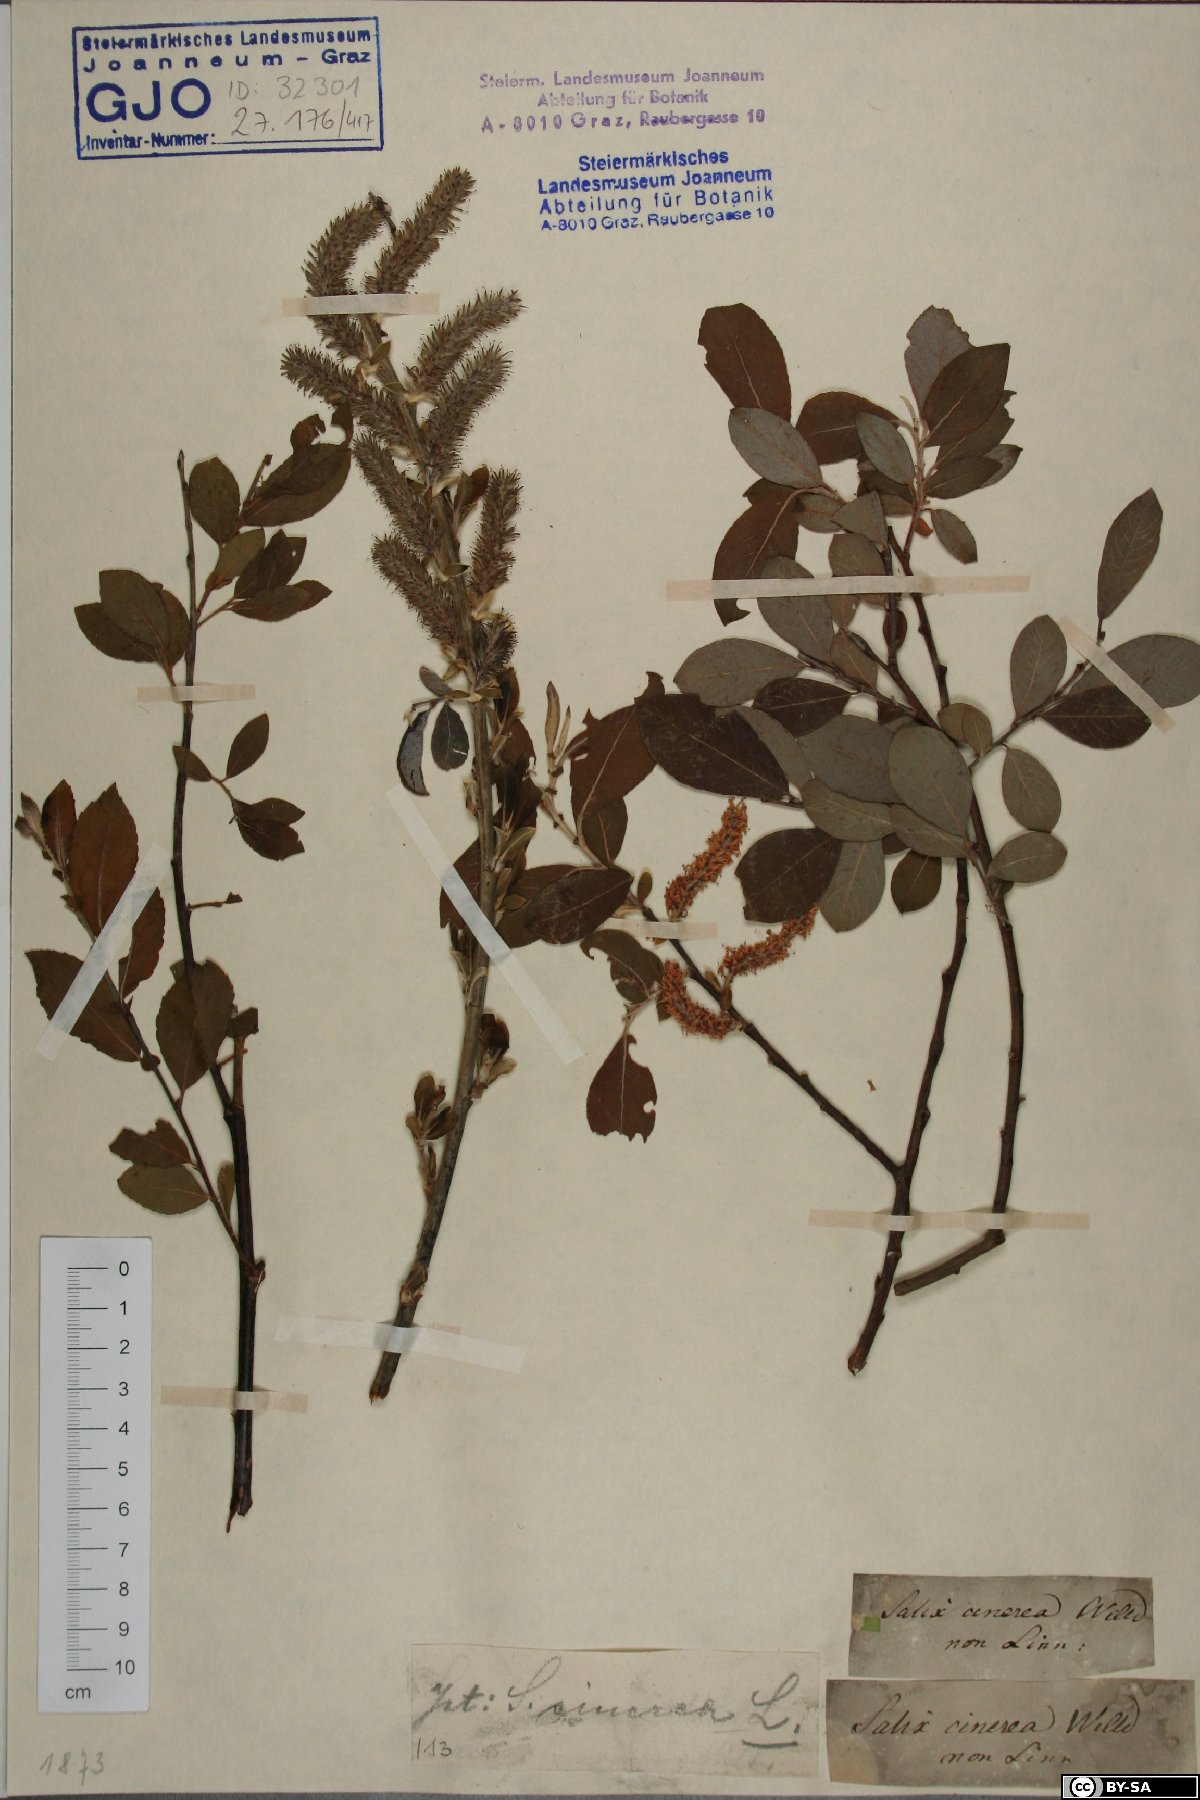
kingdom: Plantae
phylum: Tracheophyta
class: Magnoliopsida
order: Malpighiales
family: Salicaceae
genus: Salix
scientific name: Salix cinerea
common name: Common sallow
